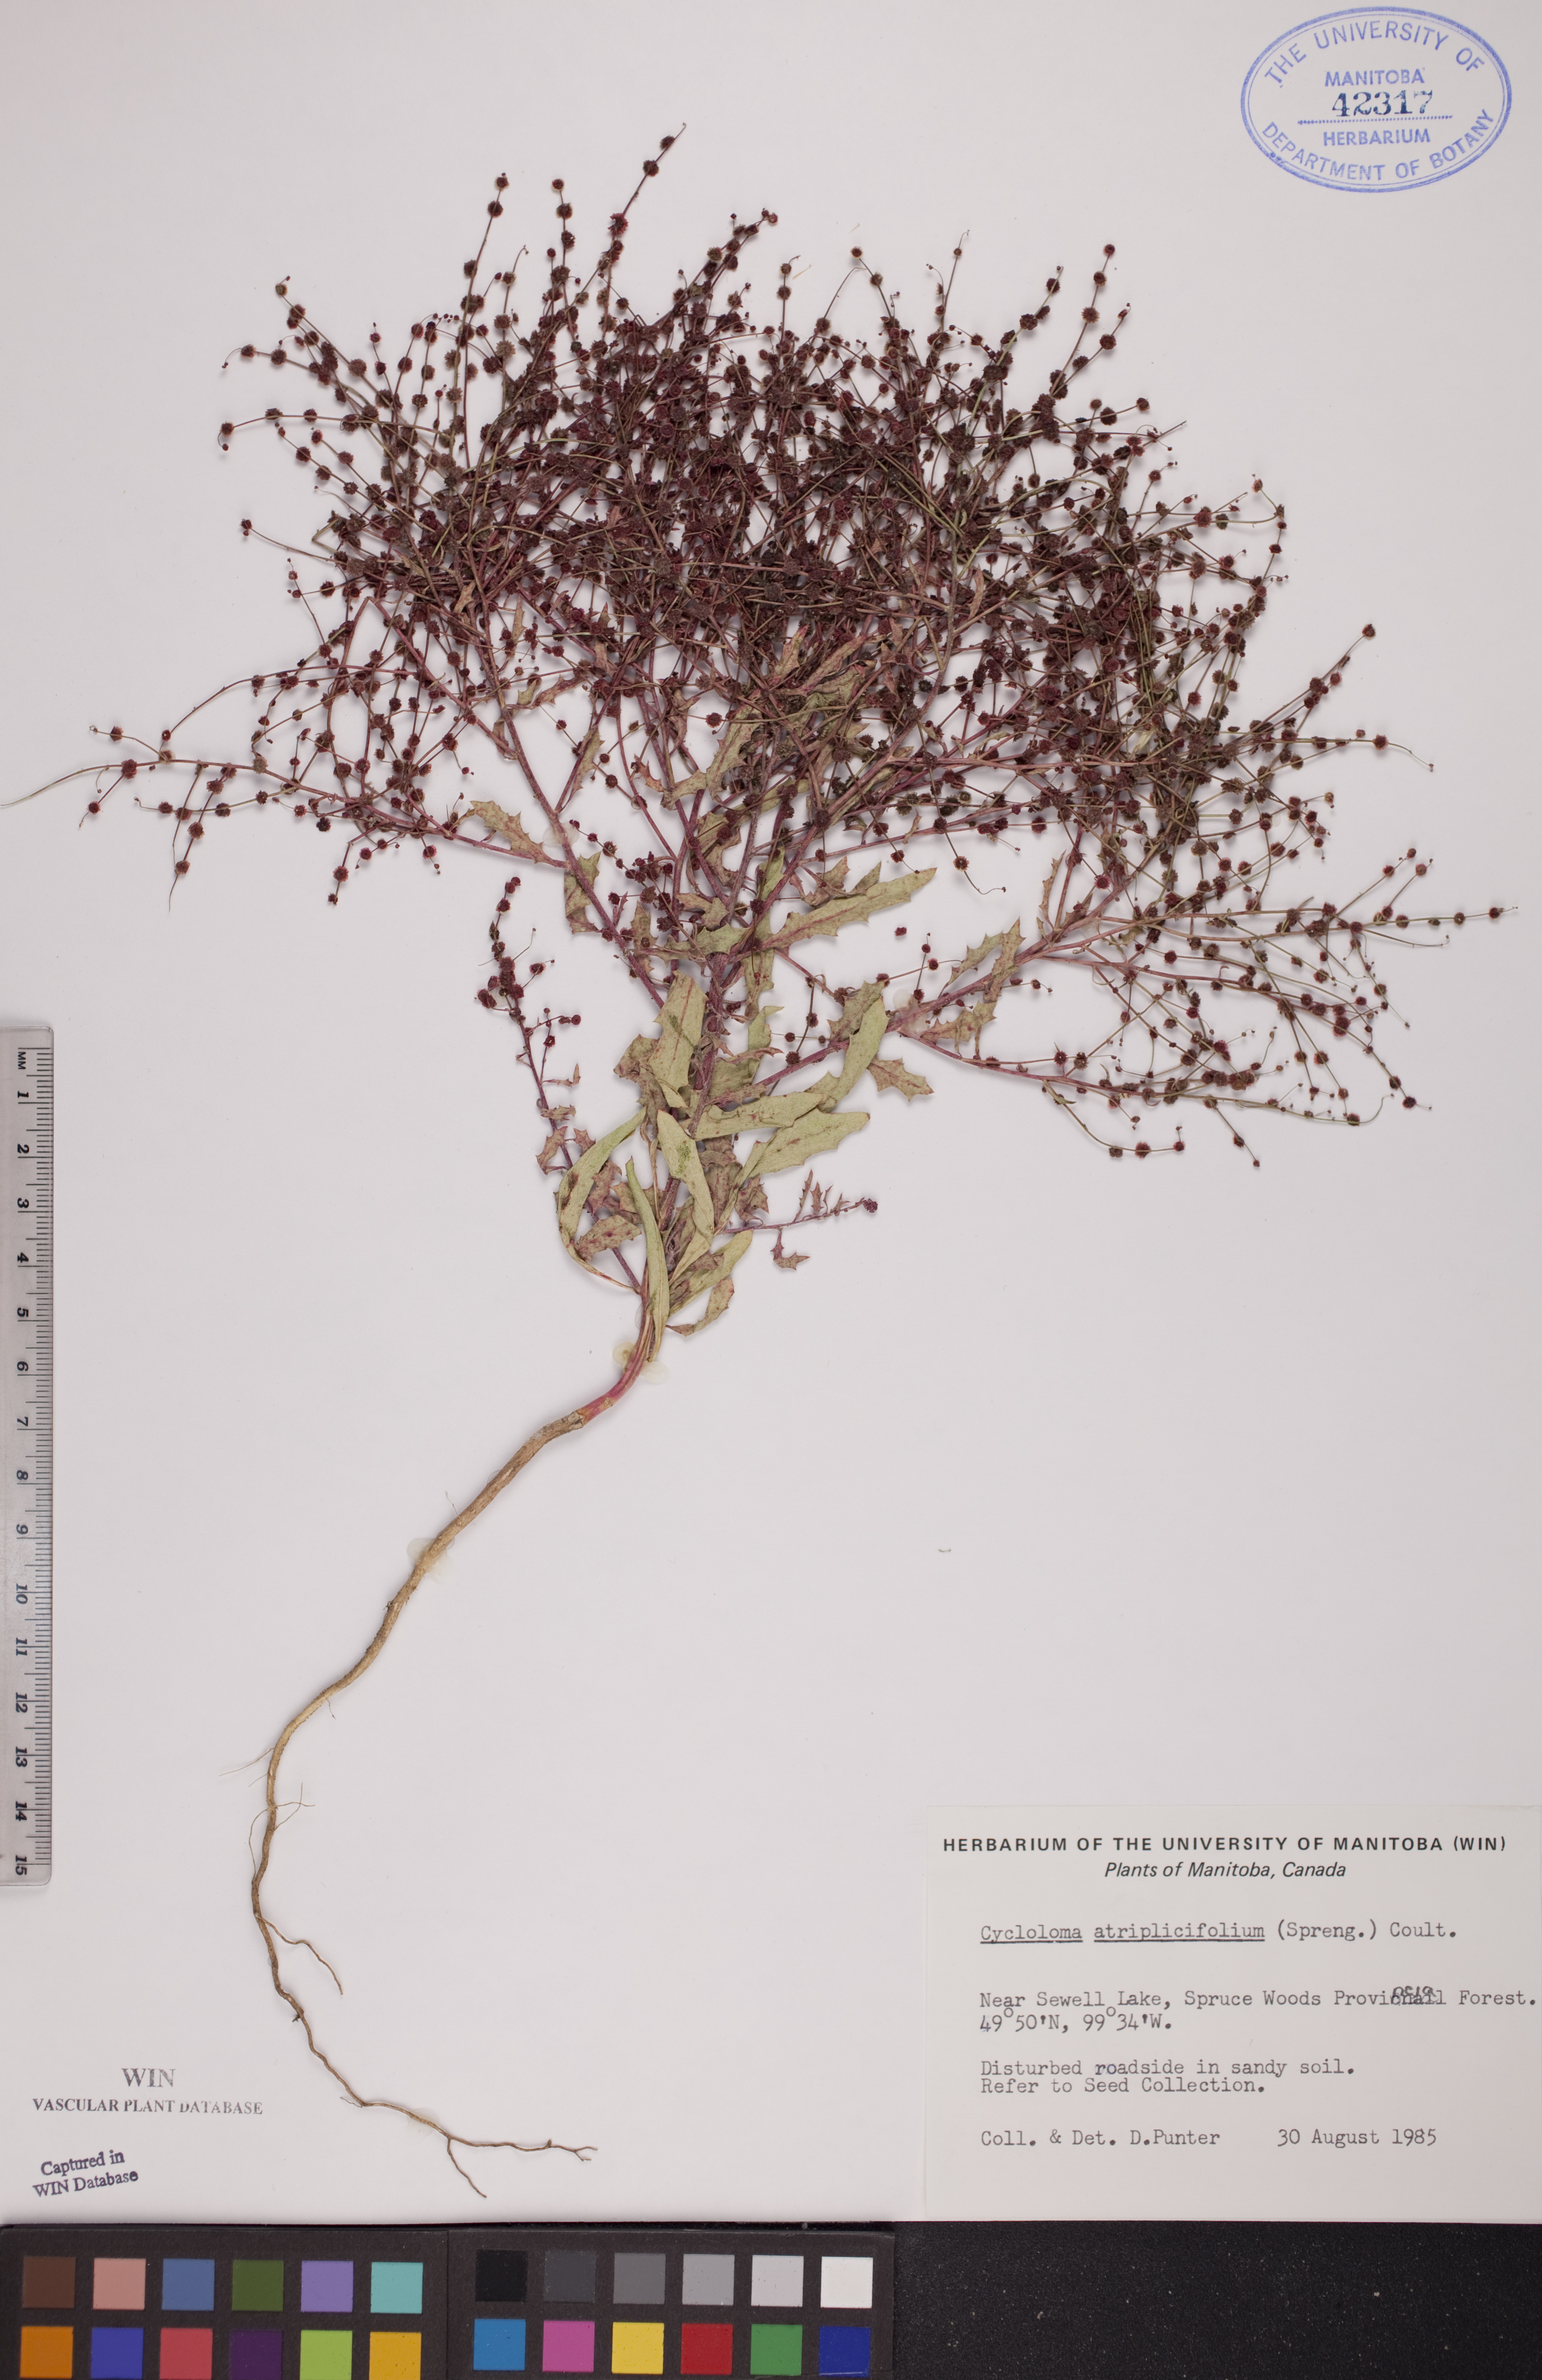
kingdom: Plantae
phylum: Tracheophyta
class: Magnoliopsida
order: Caryophyllales
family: Amaranthaceae
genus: Dysphania
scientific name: Dysphania atriplicifolia
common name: Plains tumbleweed
